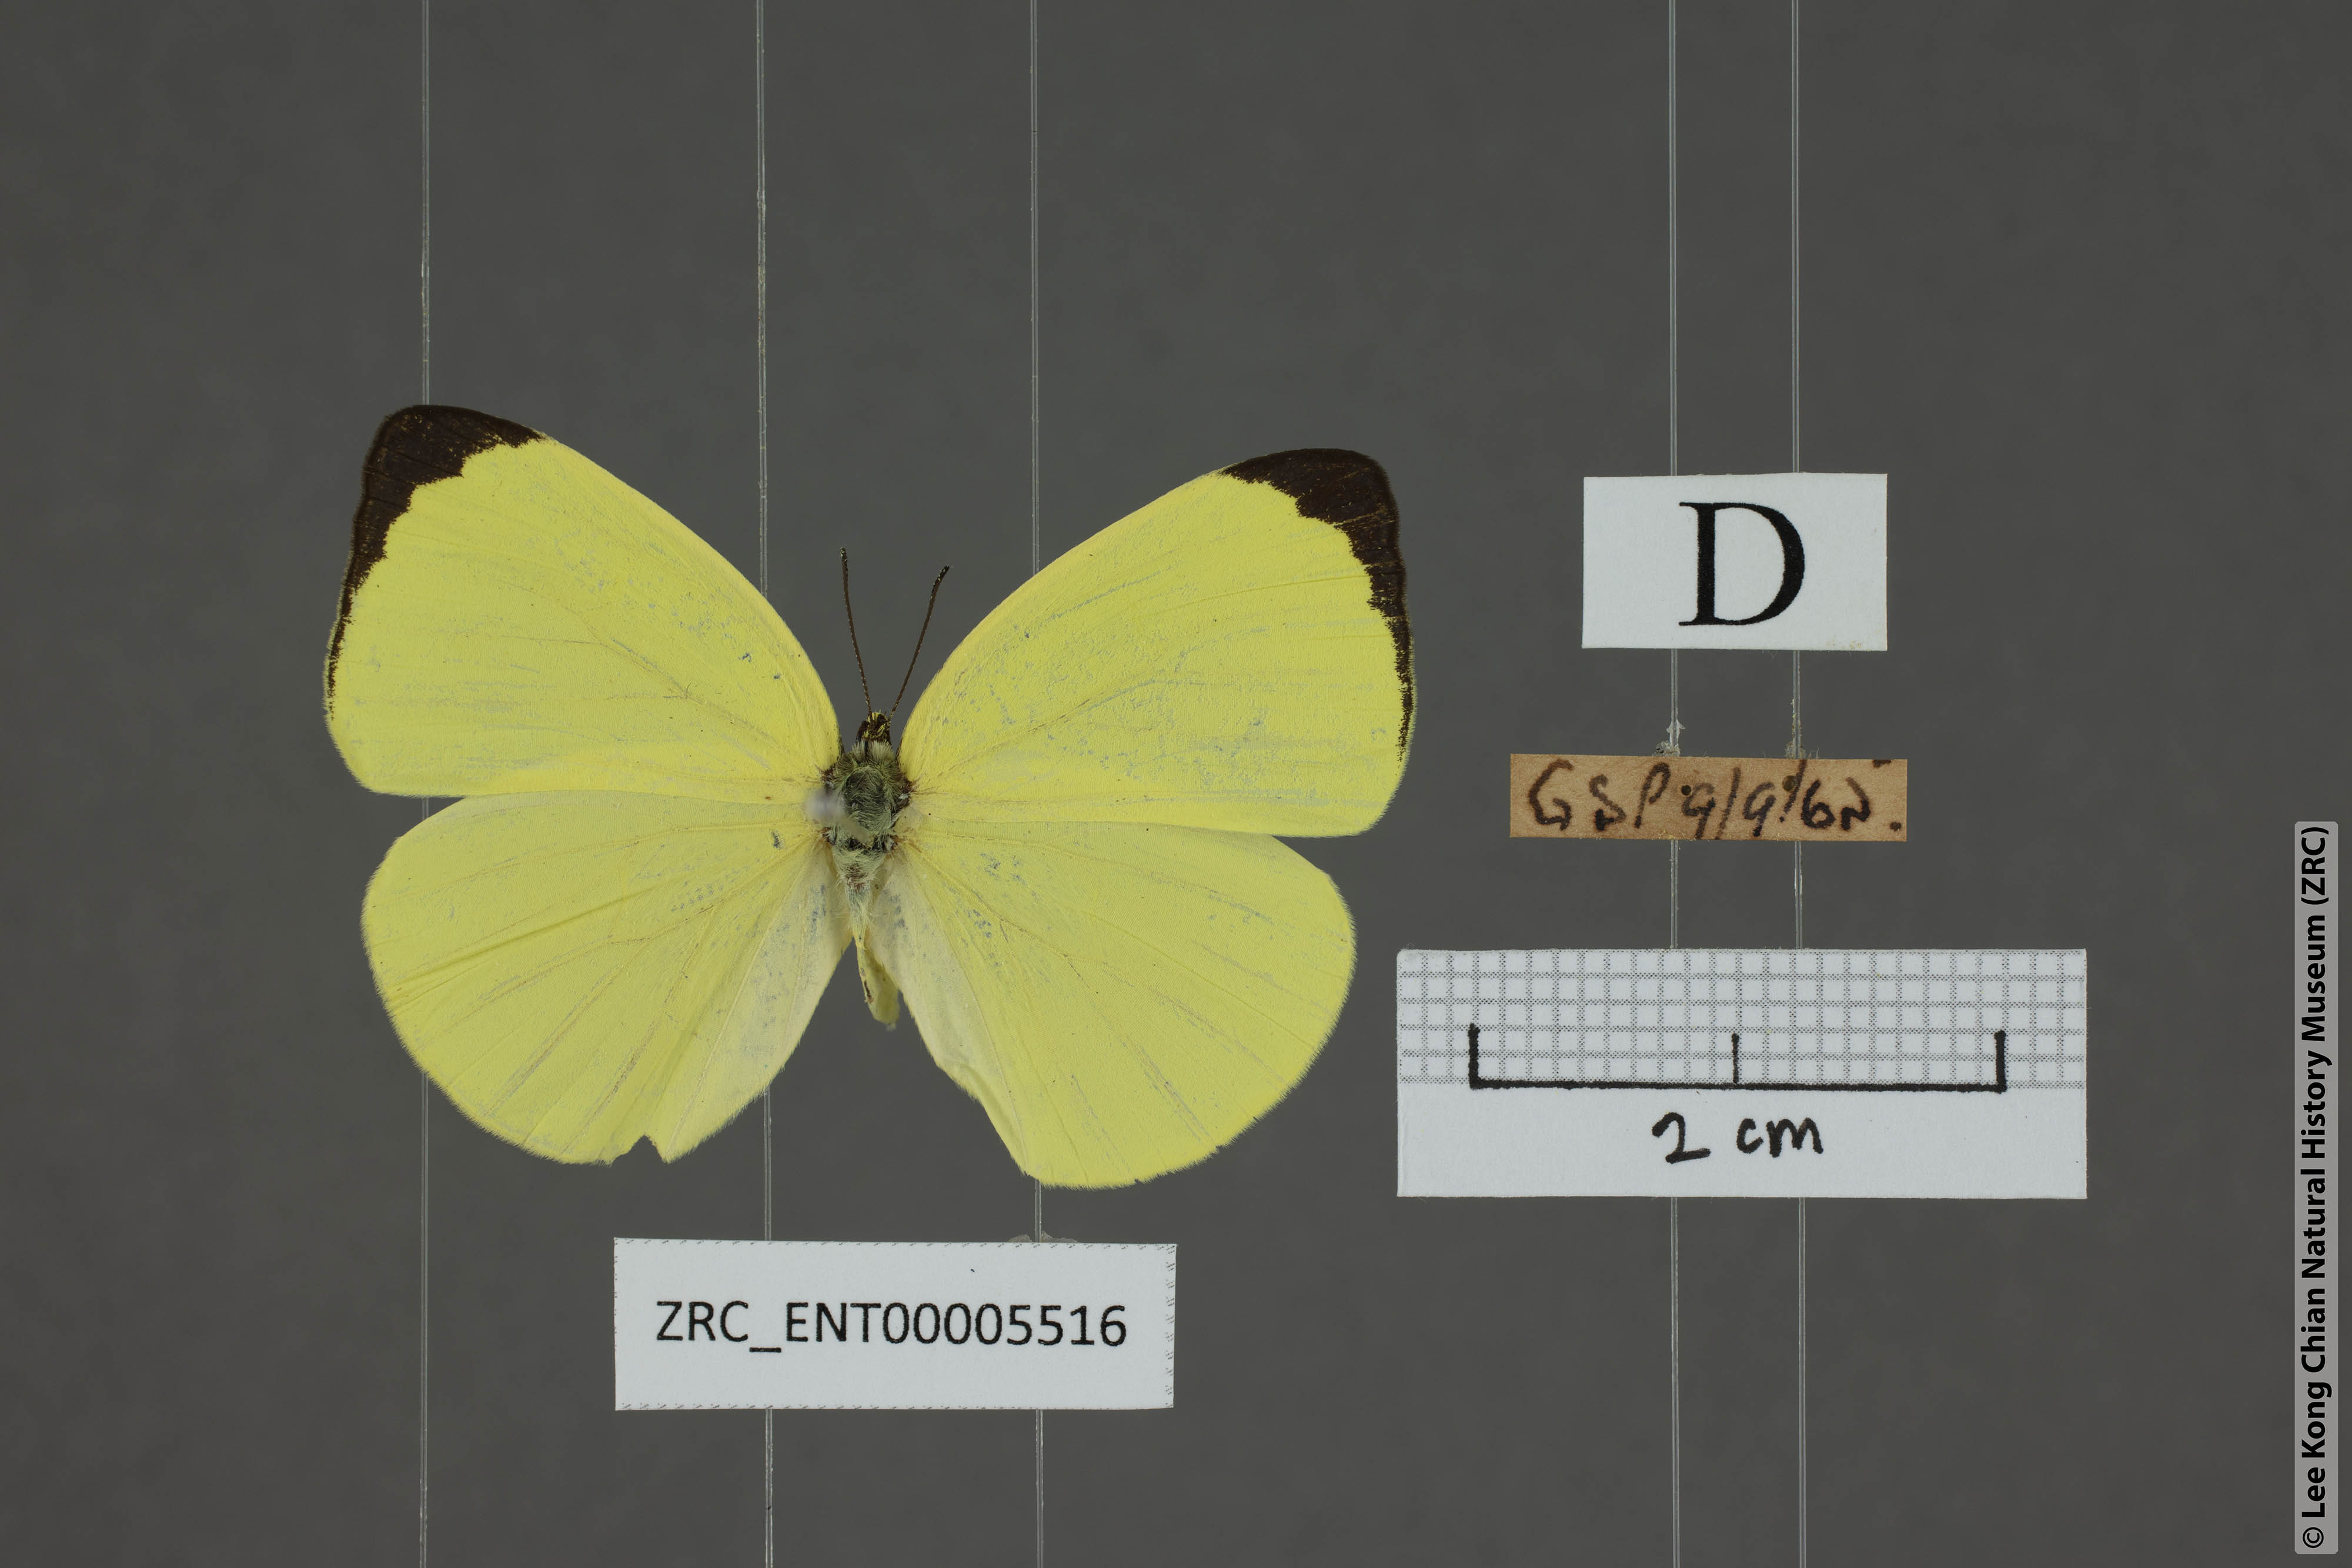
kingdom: Animalia
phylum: Arthropoda
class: Insecta
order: Lepidoptera
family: Pieridae
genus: Gandaca
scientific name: Gandaca harina
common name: Tree yellow
